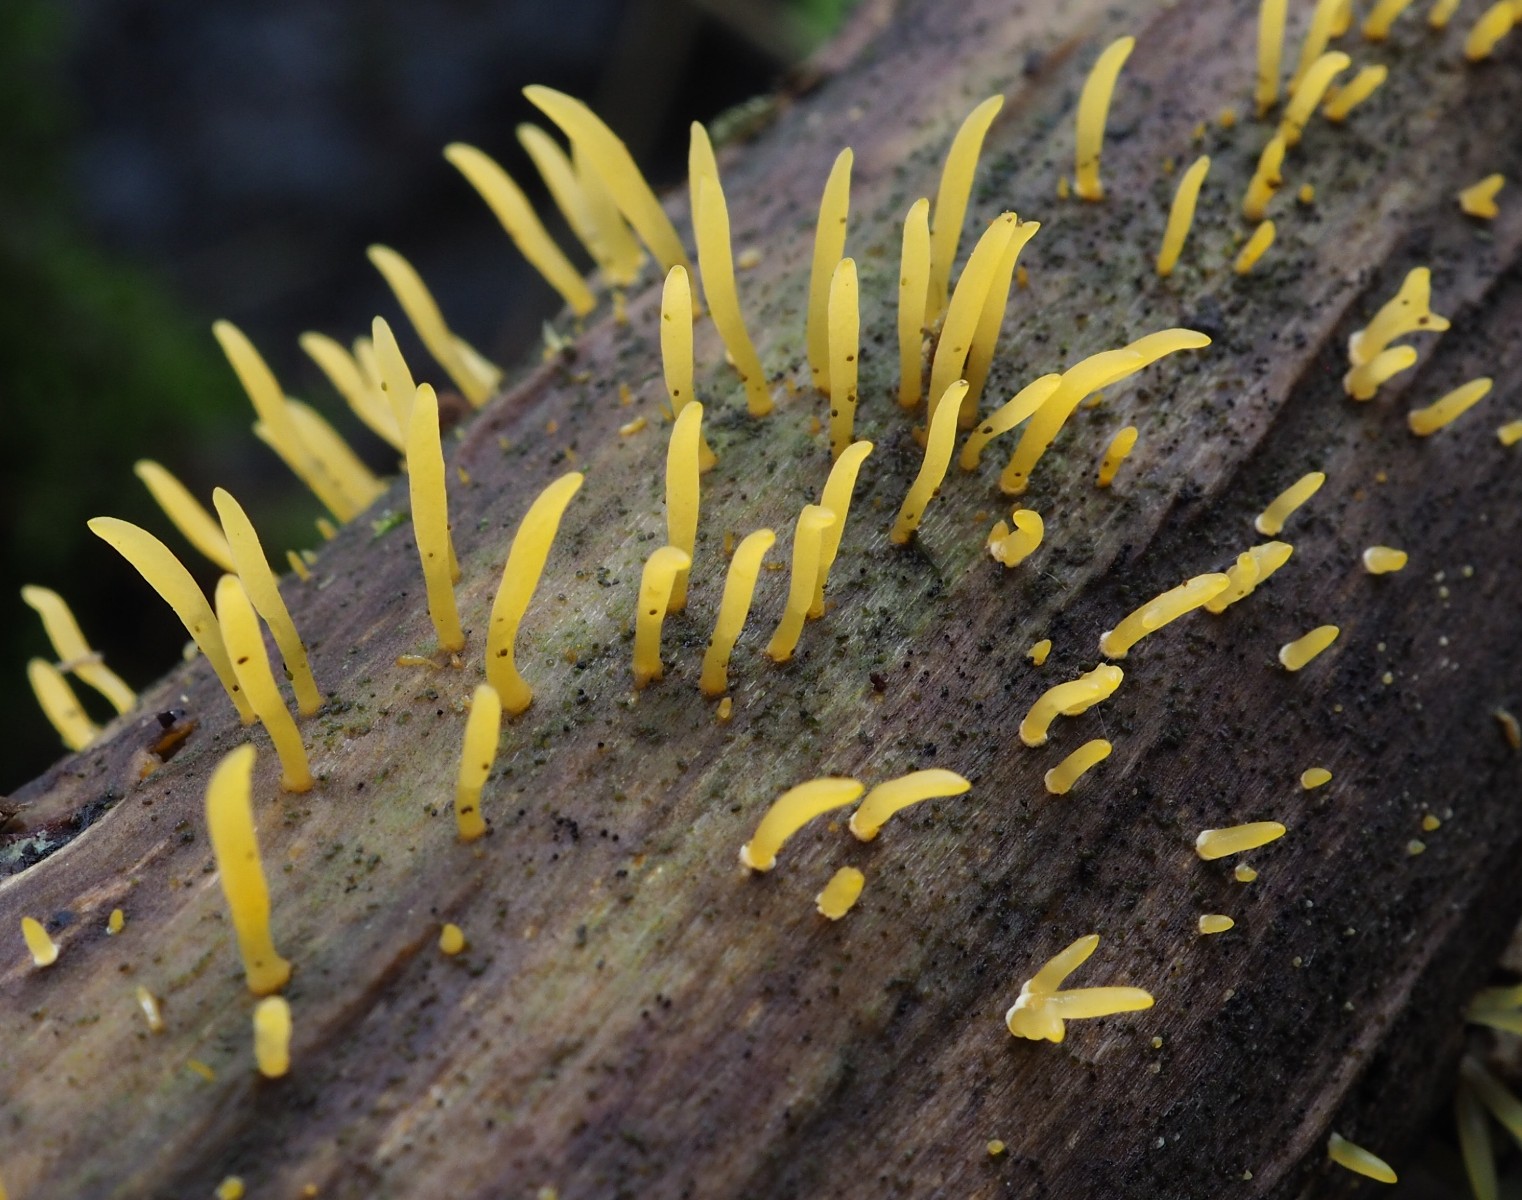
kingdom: Fungi
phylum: Basidiomycota
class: Dacrymycetes
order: Dacrymycetales
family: Dacrymycetaceae
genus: Calocera
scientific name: Calocera cornea
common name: liden guldgaffel
